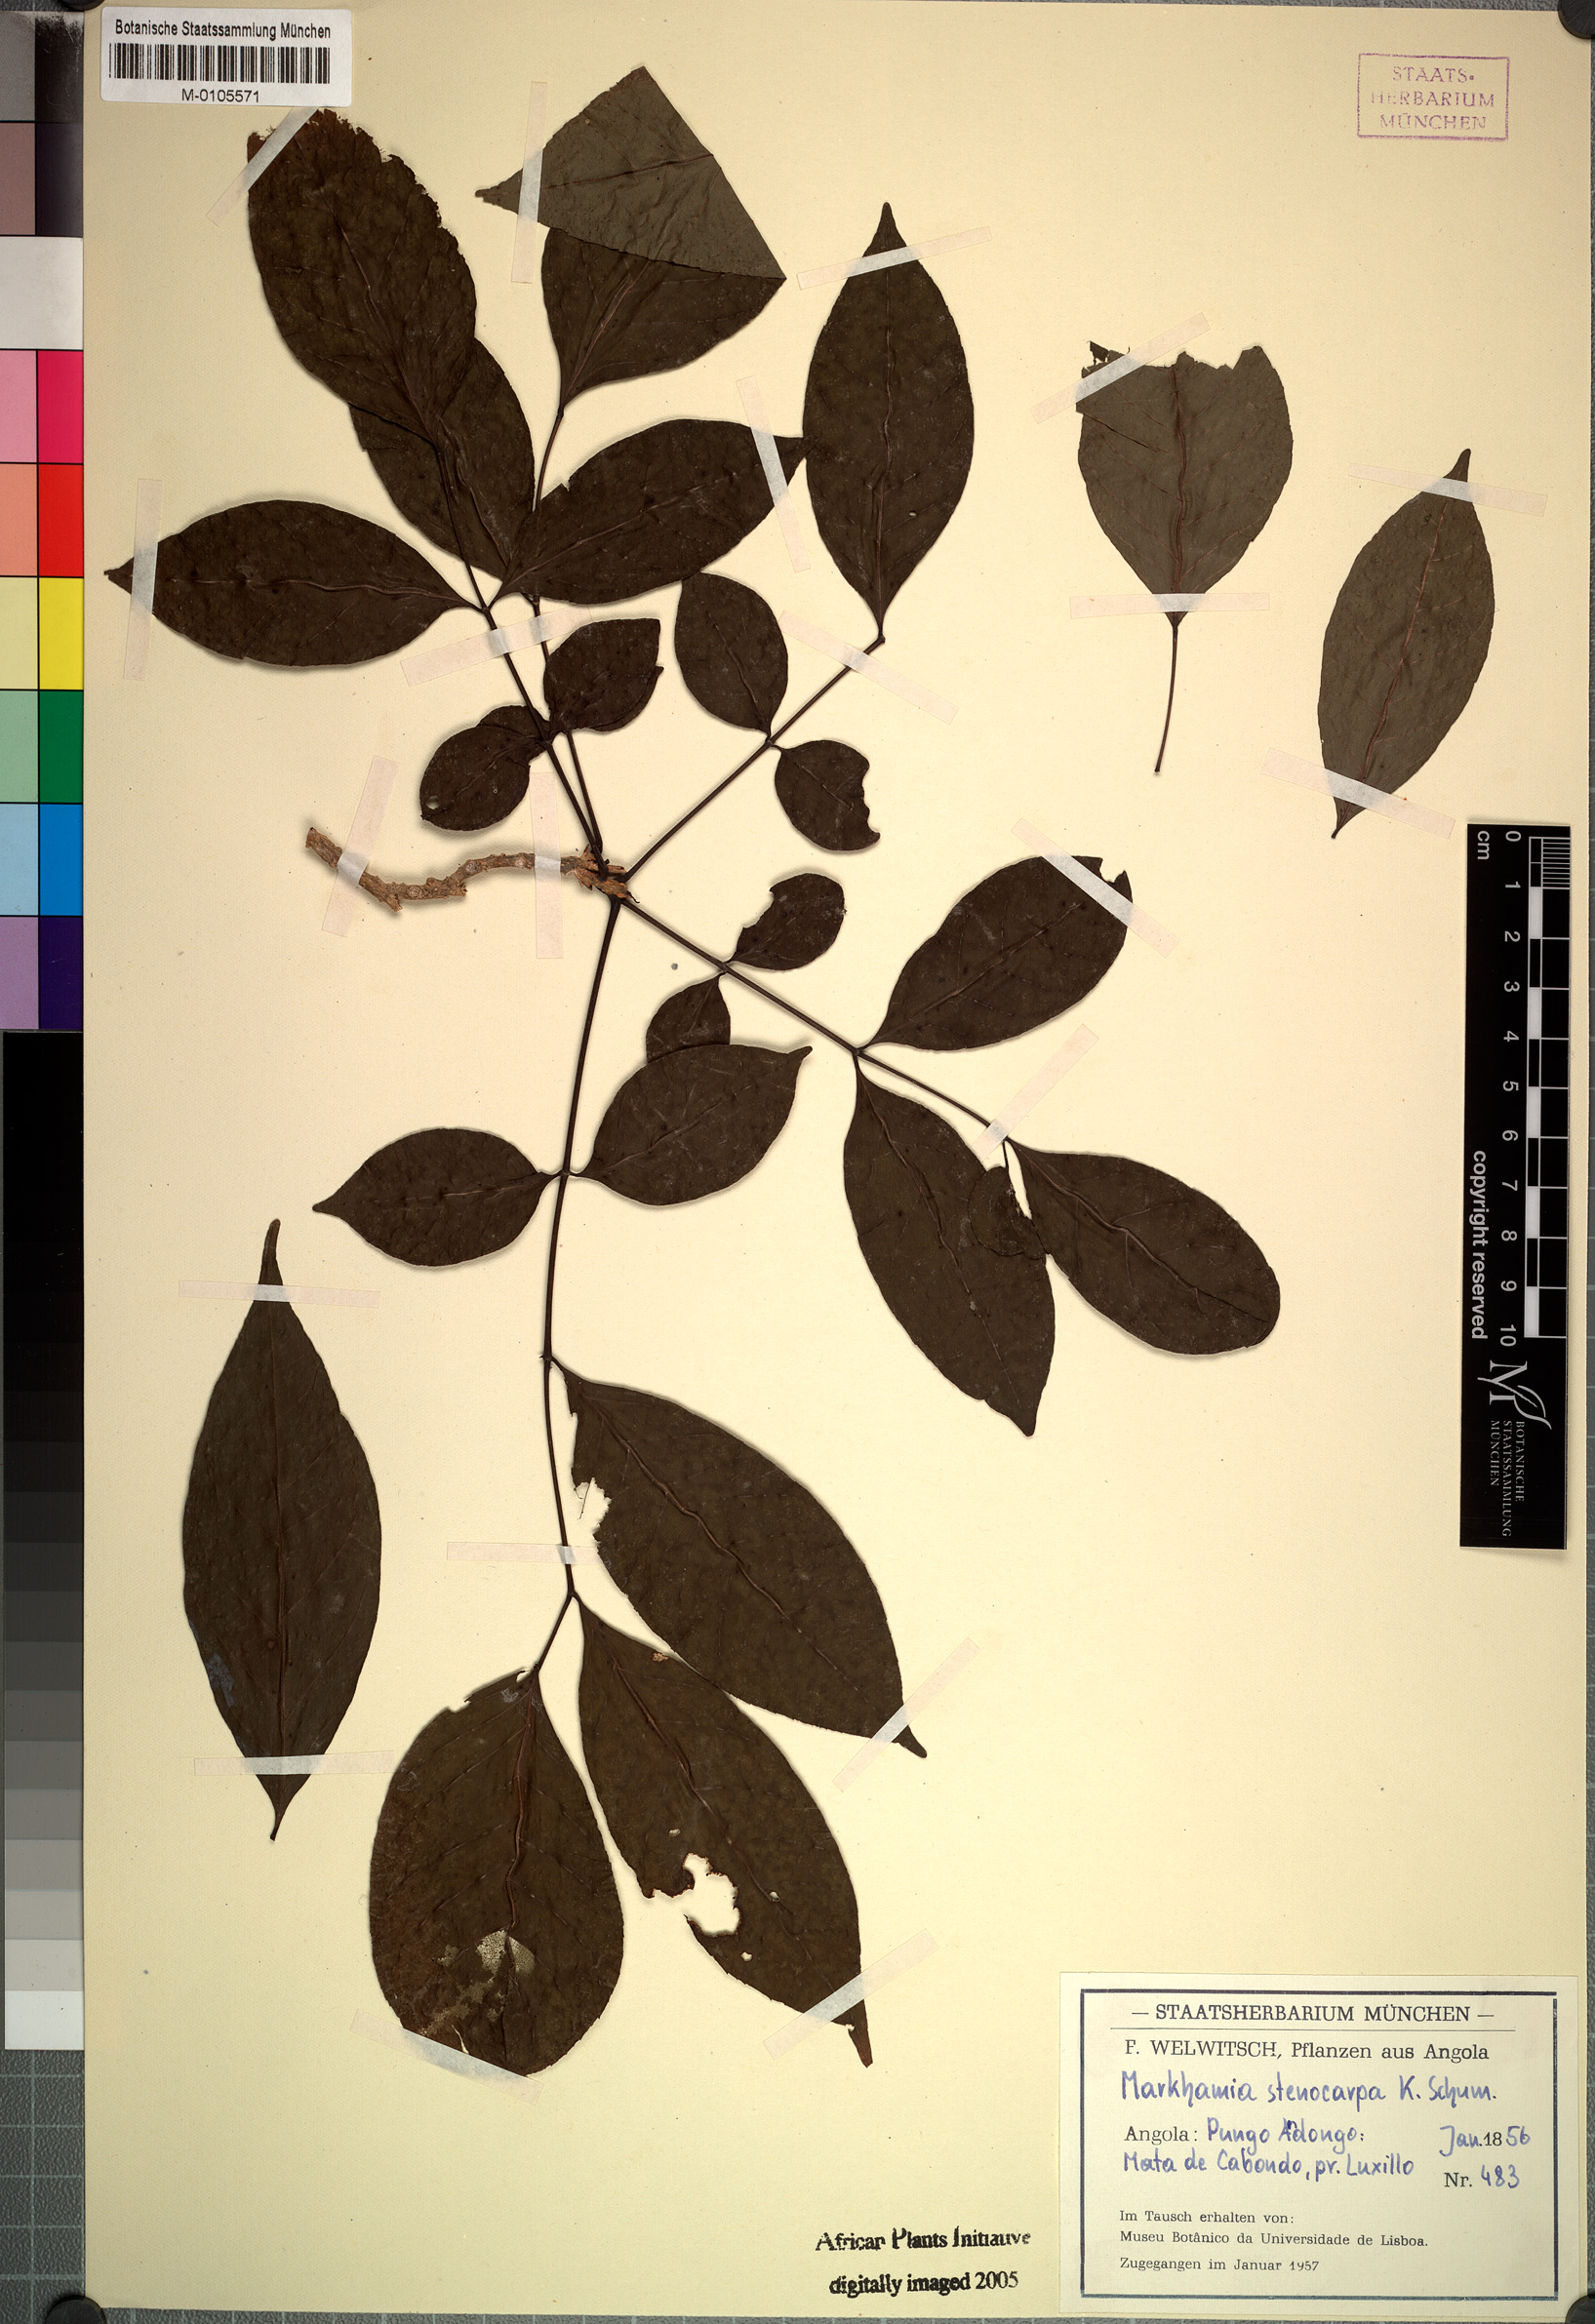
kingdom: Plantae
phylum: Tracheophyta
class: Magnoliopsida
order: Lamiales
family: Bignoniaceae
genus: Markhamia
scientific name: Markhamia zanzibarica
